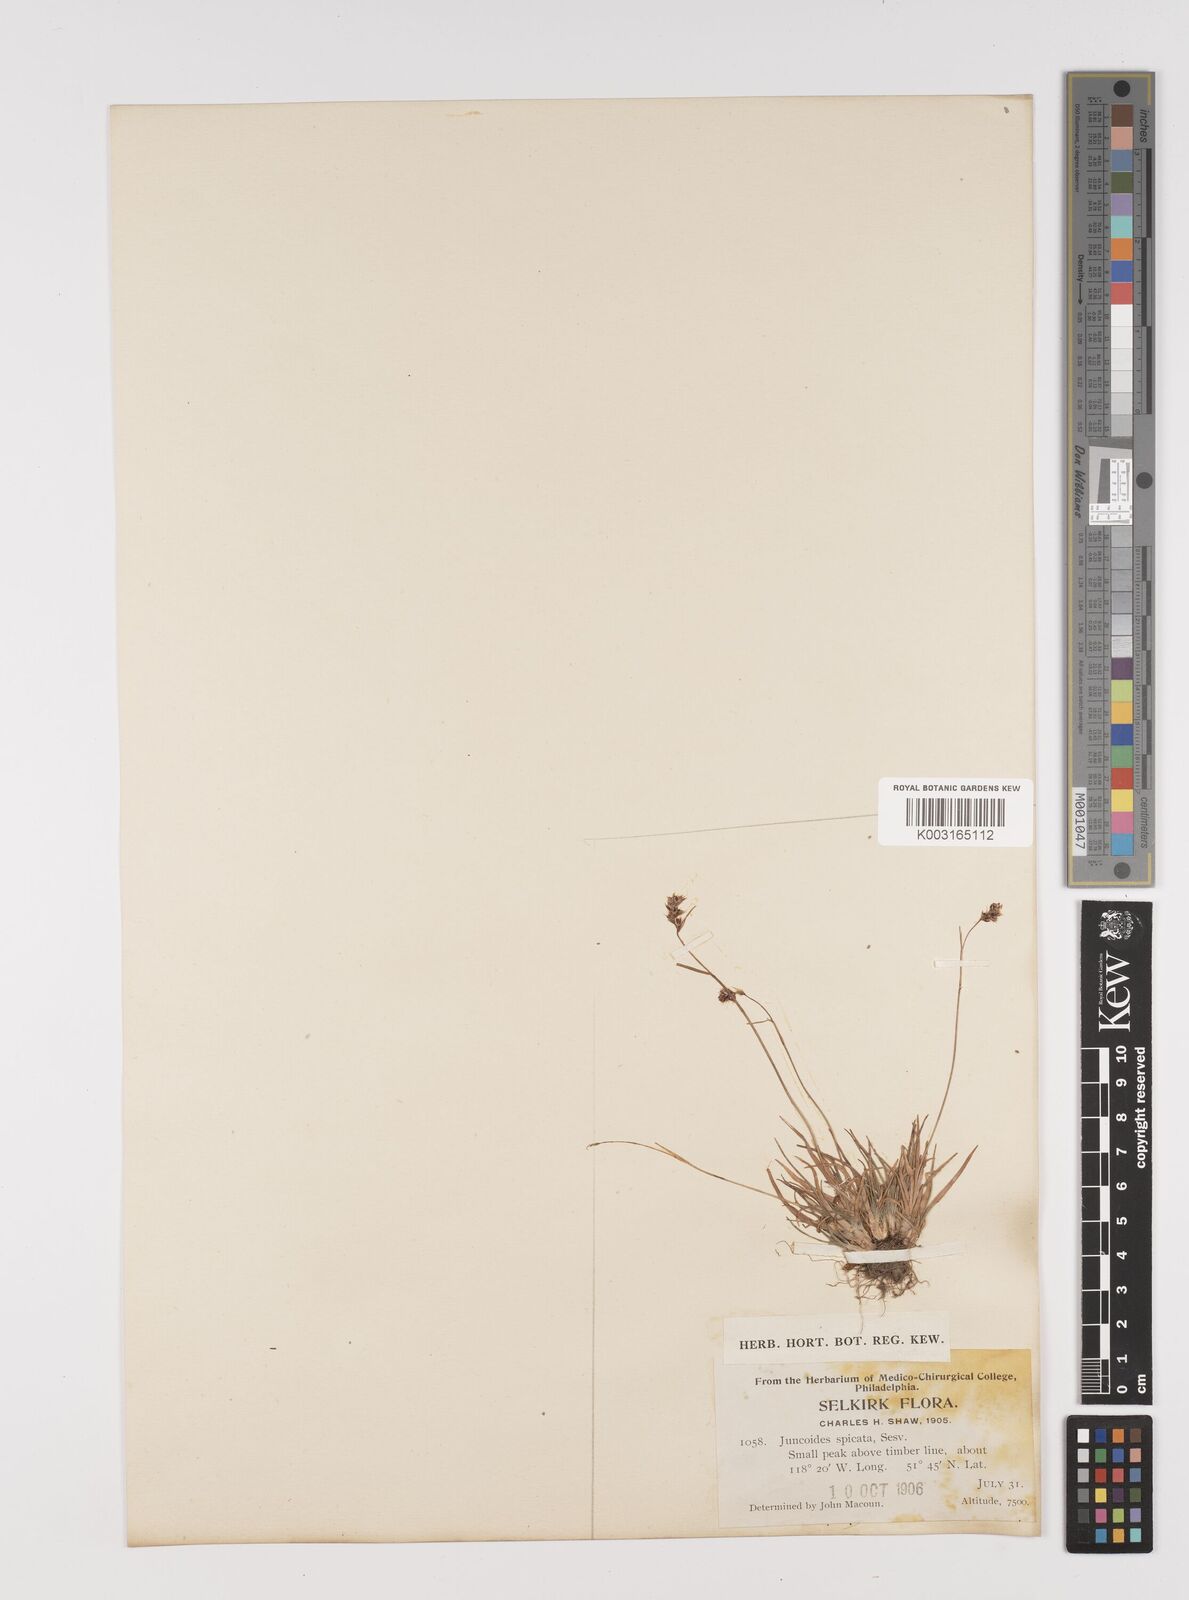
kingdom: Plantae
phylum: Tracheophyta
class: Liliopsida
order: Poales
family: Juncaceae
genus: Luzula
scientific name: Luzula spicata
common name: Spiked wood-rush
